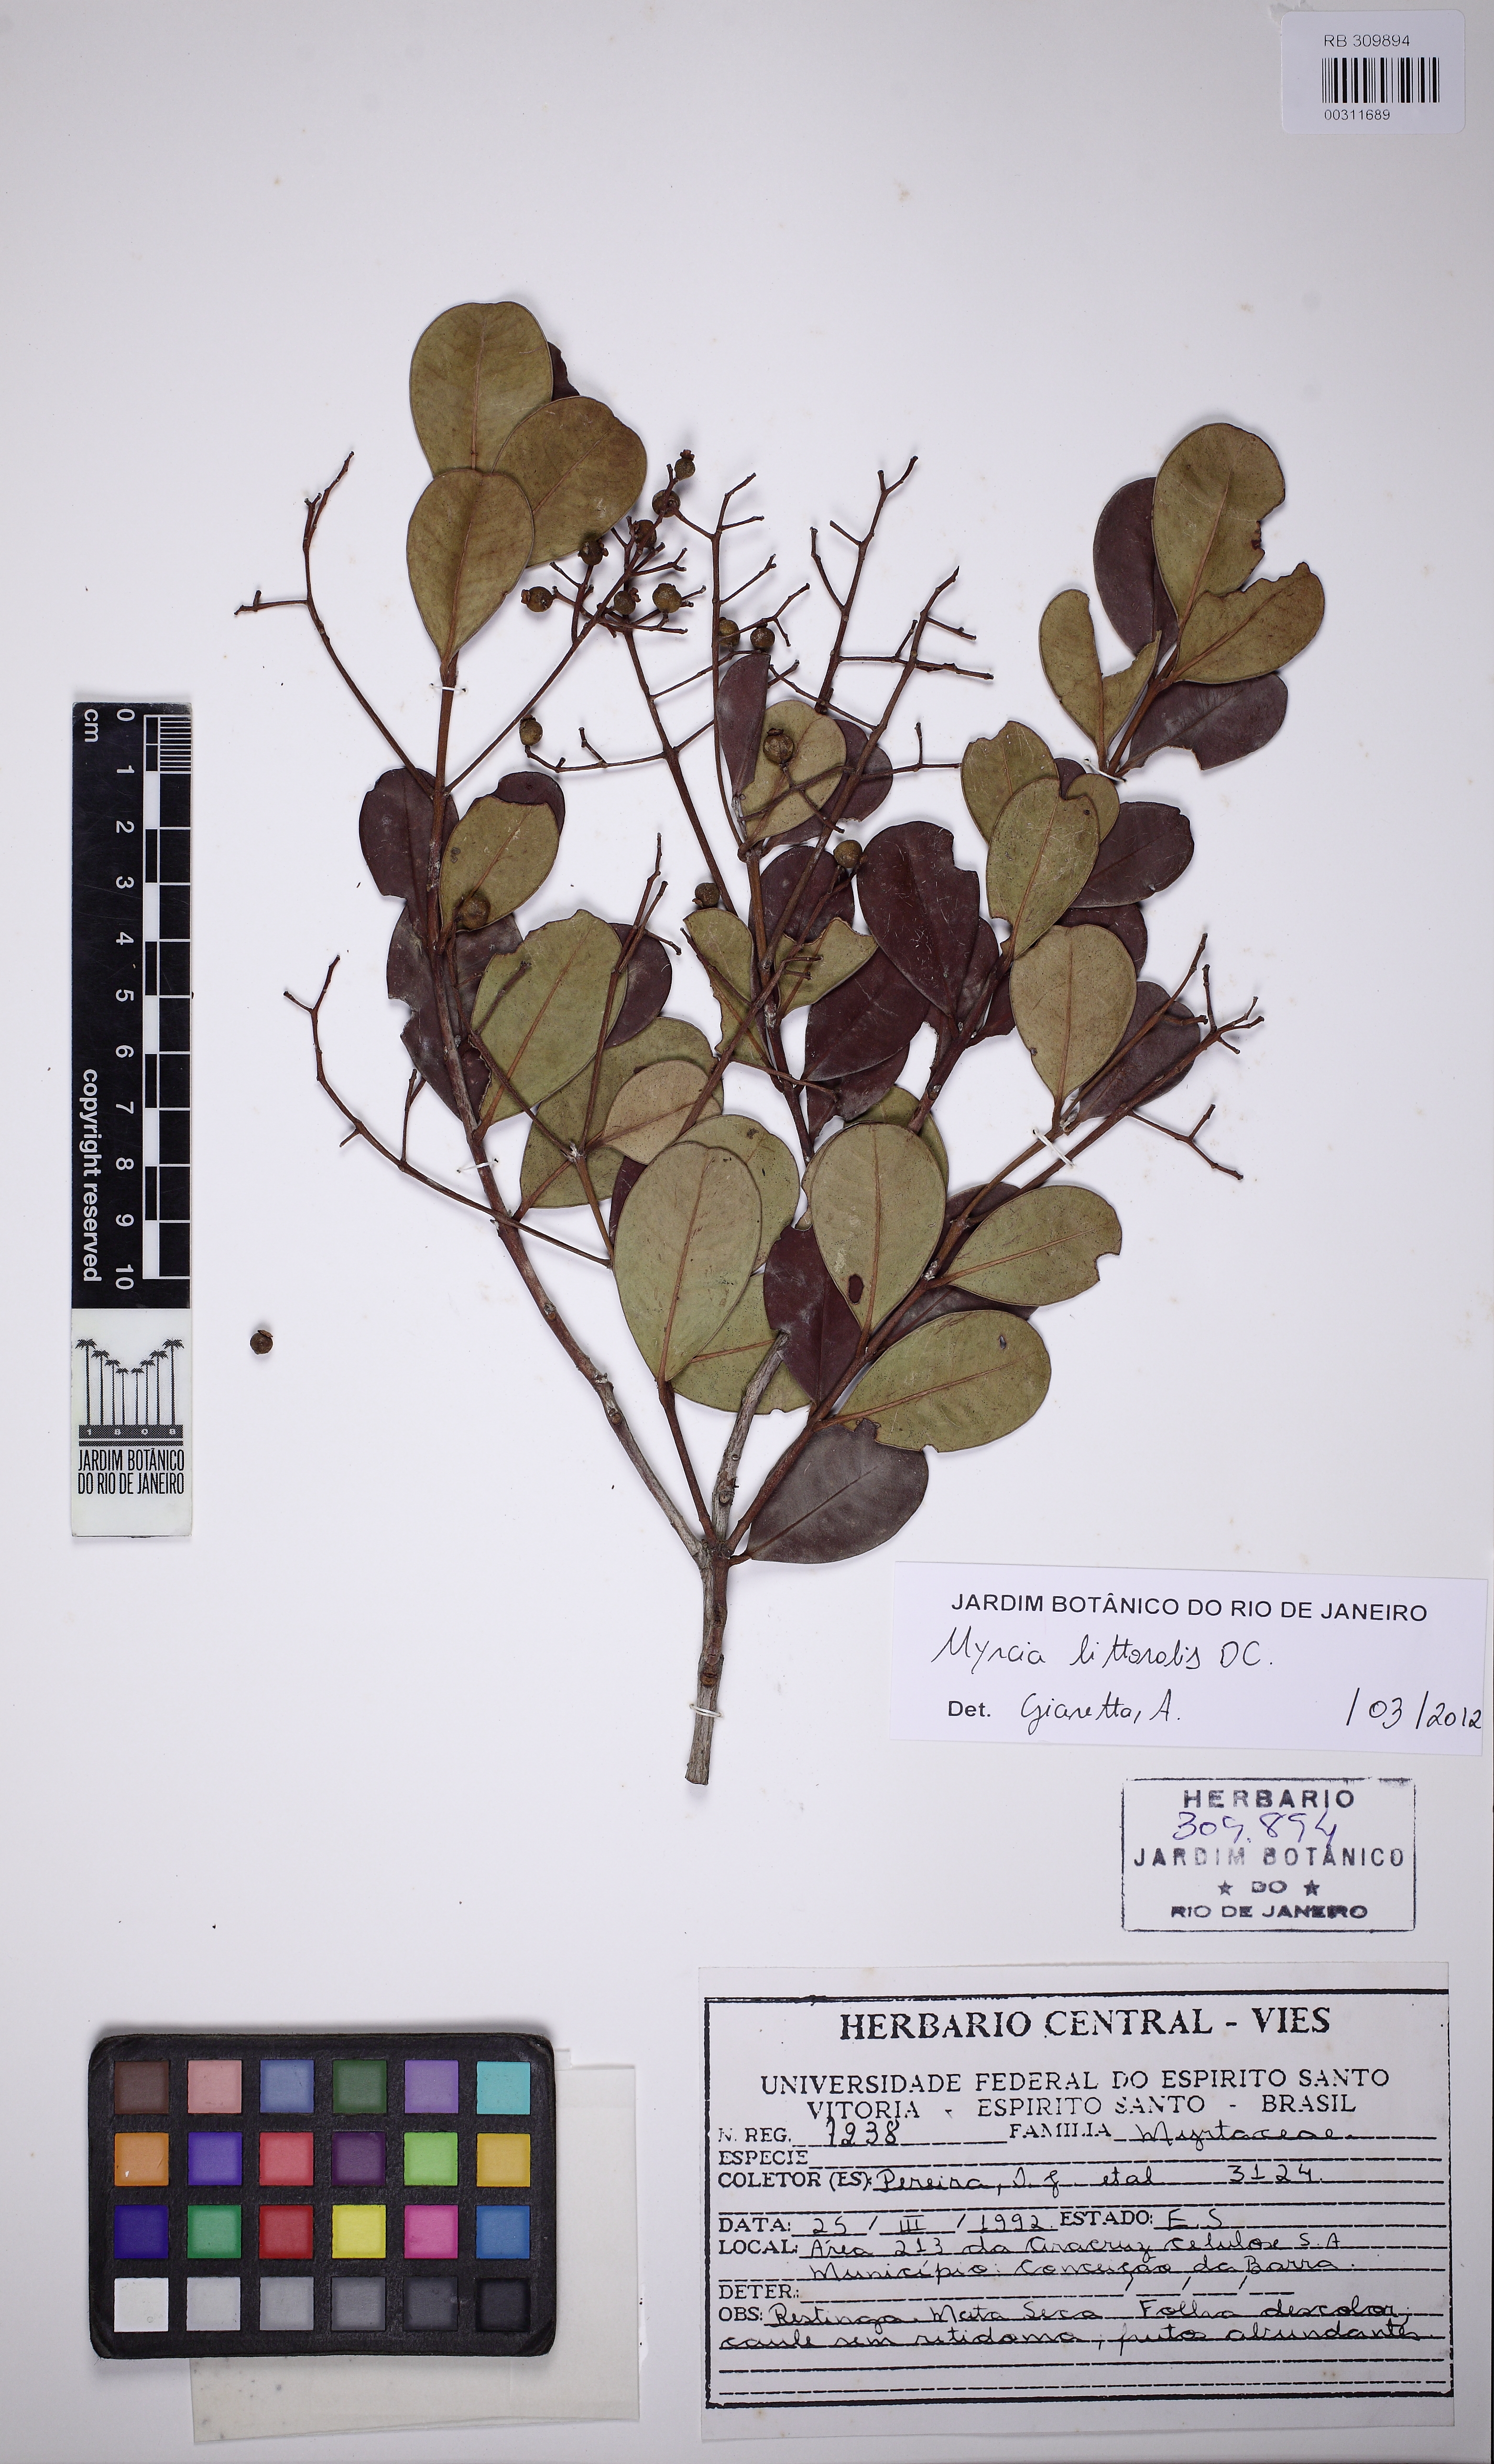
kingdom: Plantae
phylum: Tracheophyta
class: Magnoliopsida
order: Myrtales
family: Myrtaceae
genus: Myrcia
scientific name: Myrcia littoralis
